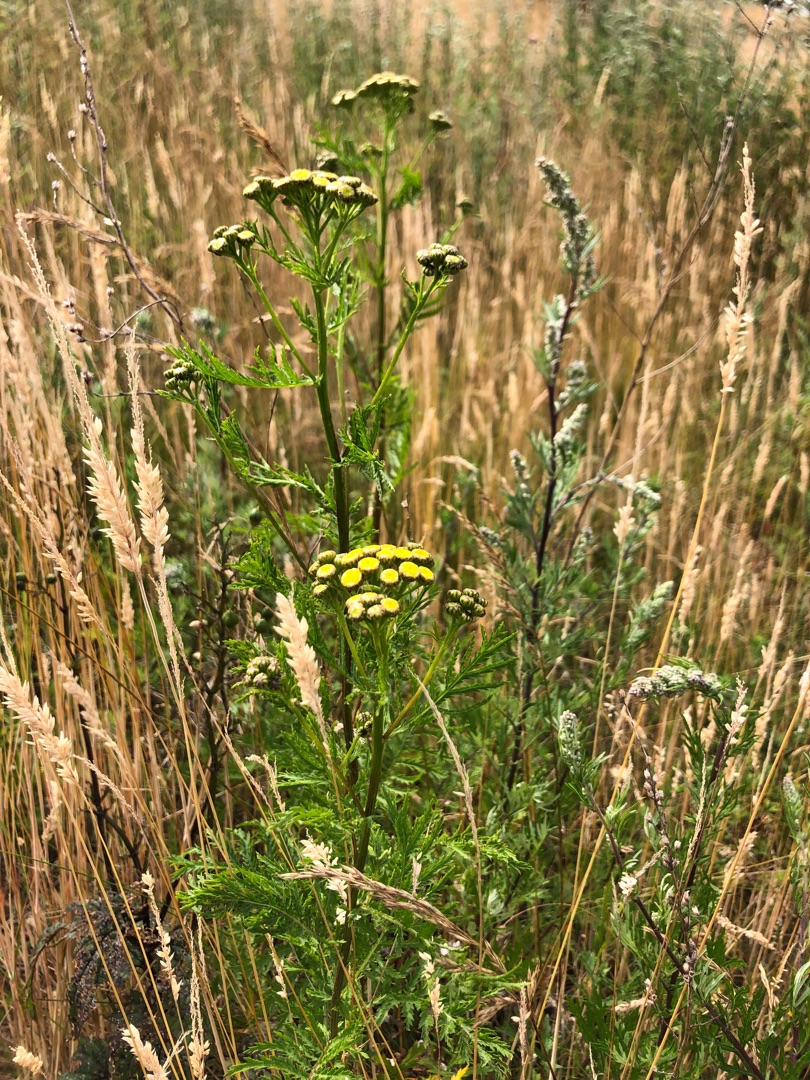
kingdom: Plantae
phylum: Tracheophyta
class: Magnoliopsida
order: Asterales
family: Asteraceae
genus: Tanacetum
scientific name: Tanacetum vulgare
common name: Rejnfan
